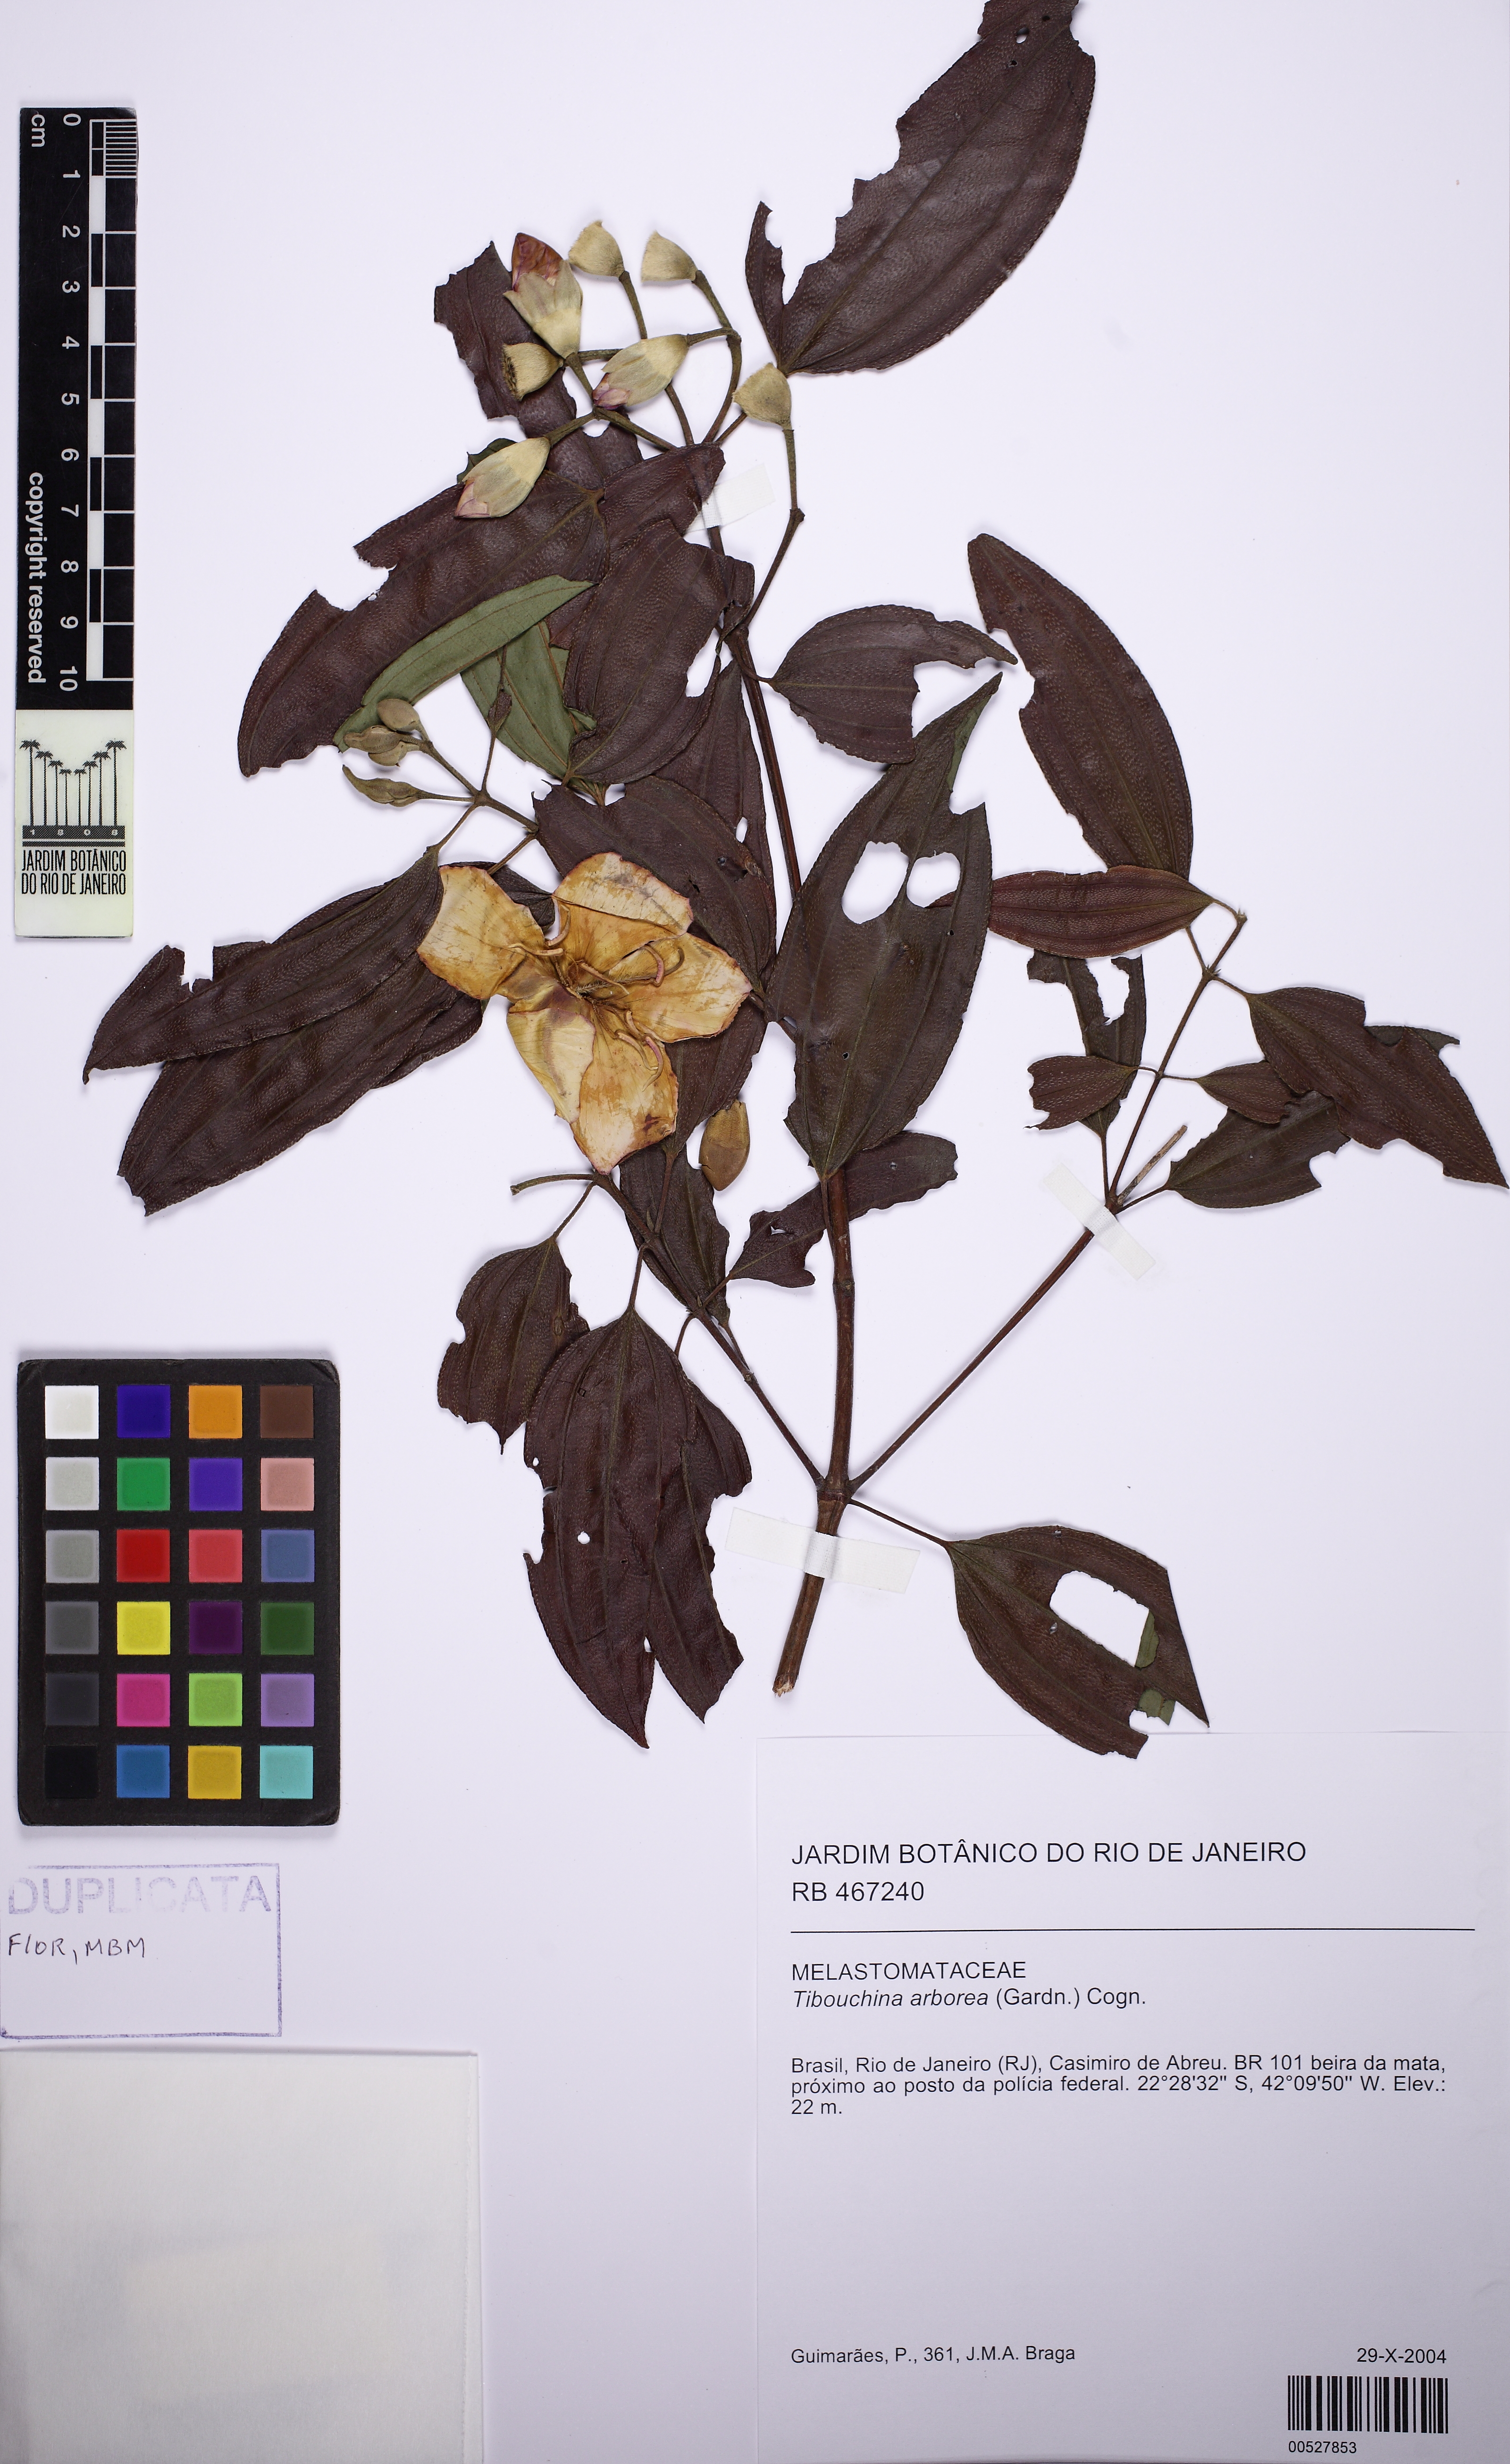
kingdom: Plantae
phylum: Tracheophyta
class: Magnoliopsida
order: Myrtales
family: Melastomataceae
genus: Pleroma
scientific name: Pleroma arboreum
